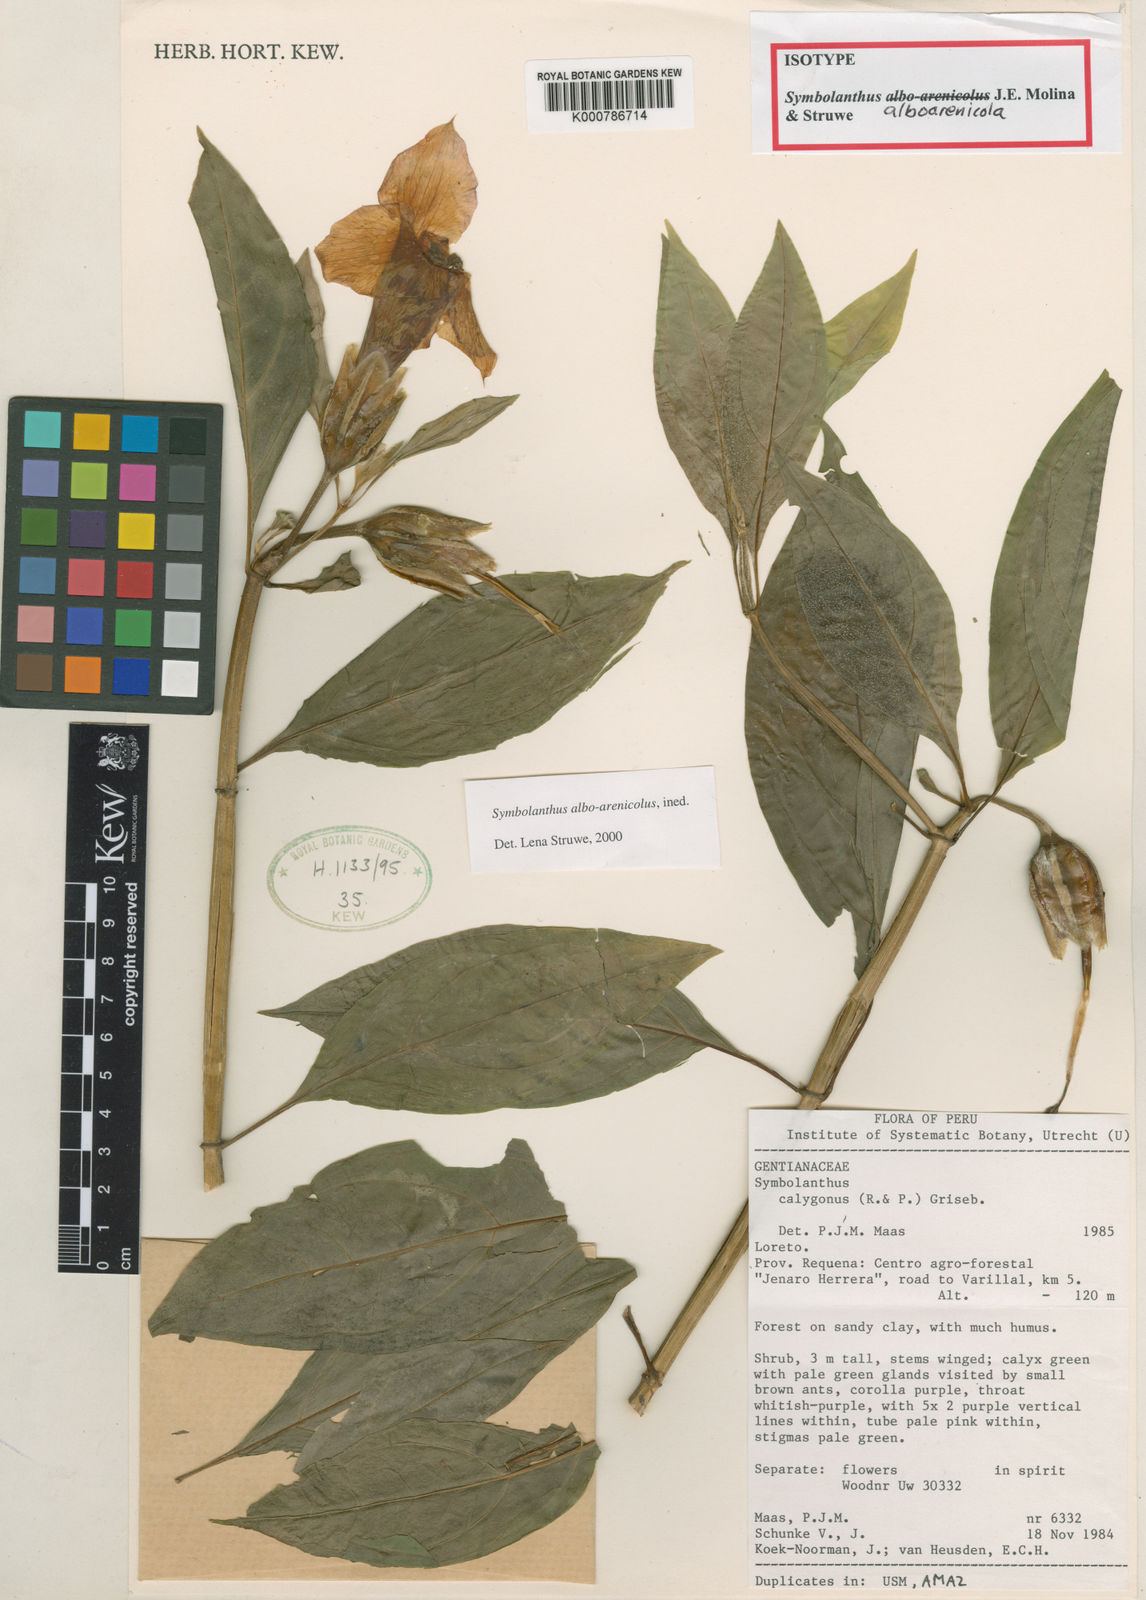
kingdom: Plantae
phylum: Tracheophyta
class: Magnoliopsida
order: Gentianales
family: Gentianaceae
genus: Symbolanthus
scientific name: Symbolanthus alboarenicola
